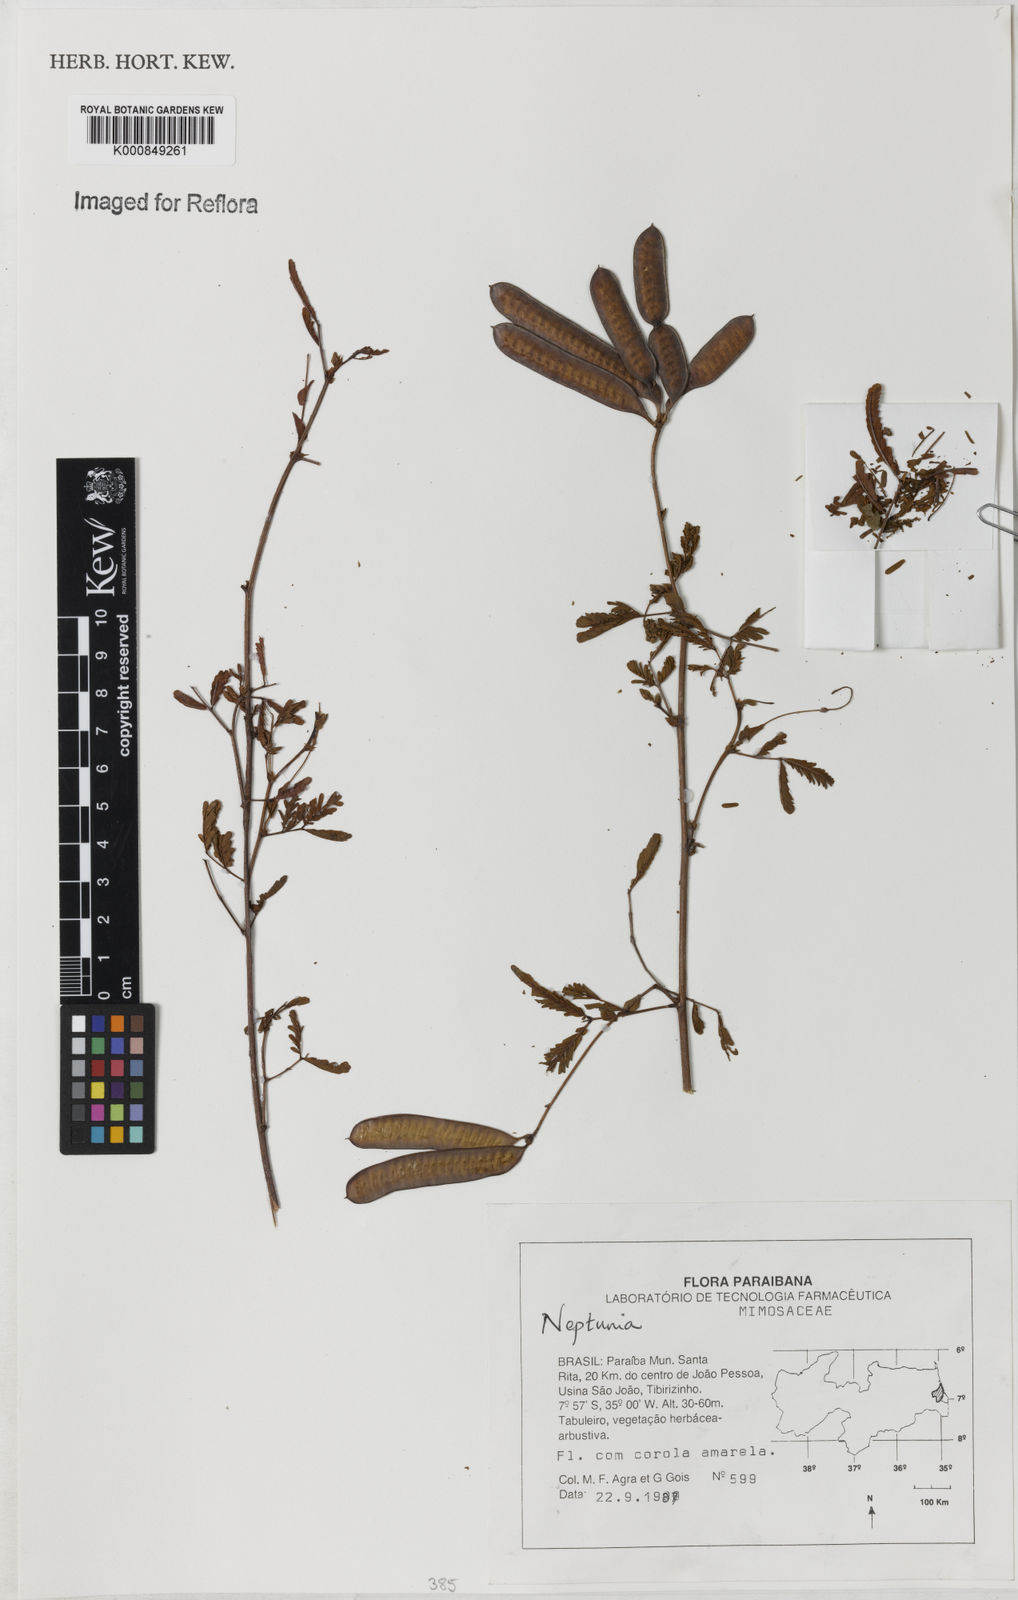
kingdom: Plantae
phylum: Tracheophyta
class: Magnoliopsida
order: Fabales
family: Fabaceae
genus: Neptunia
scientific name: Neptunia
